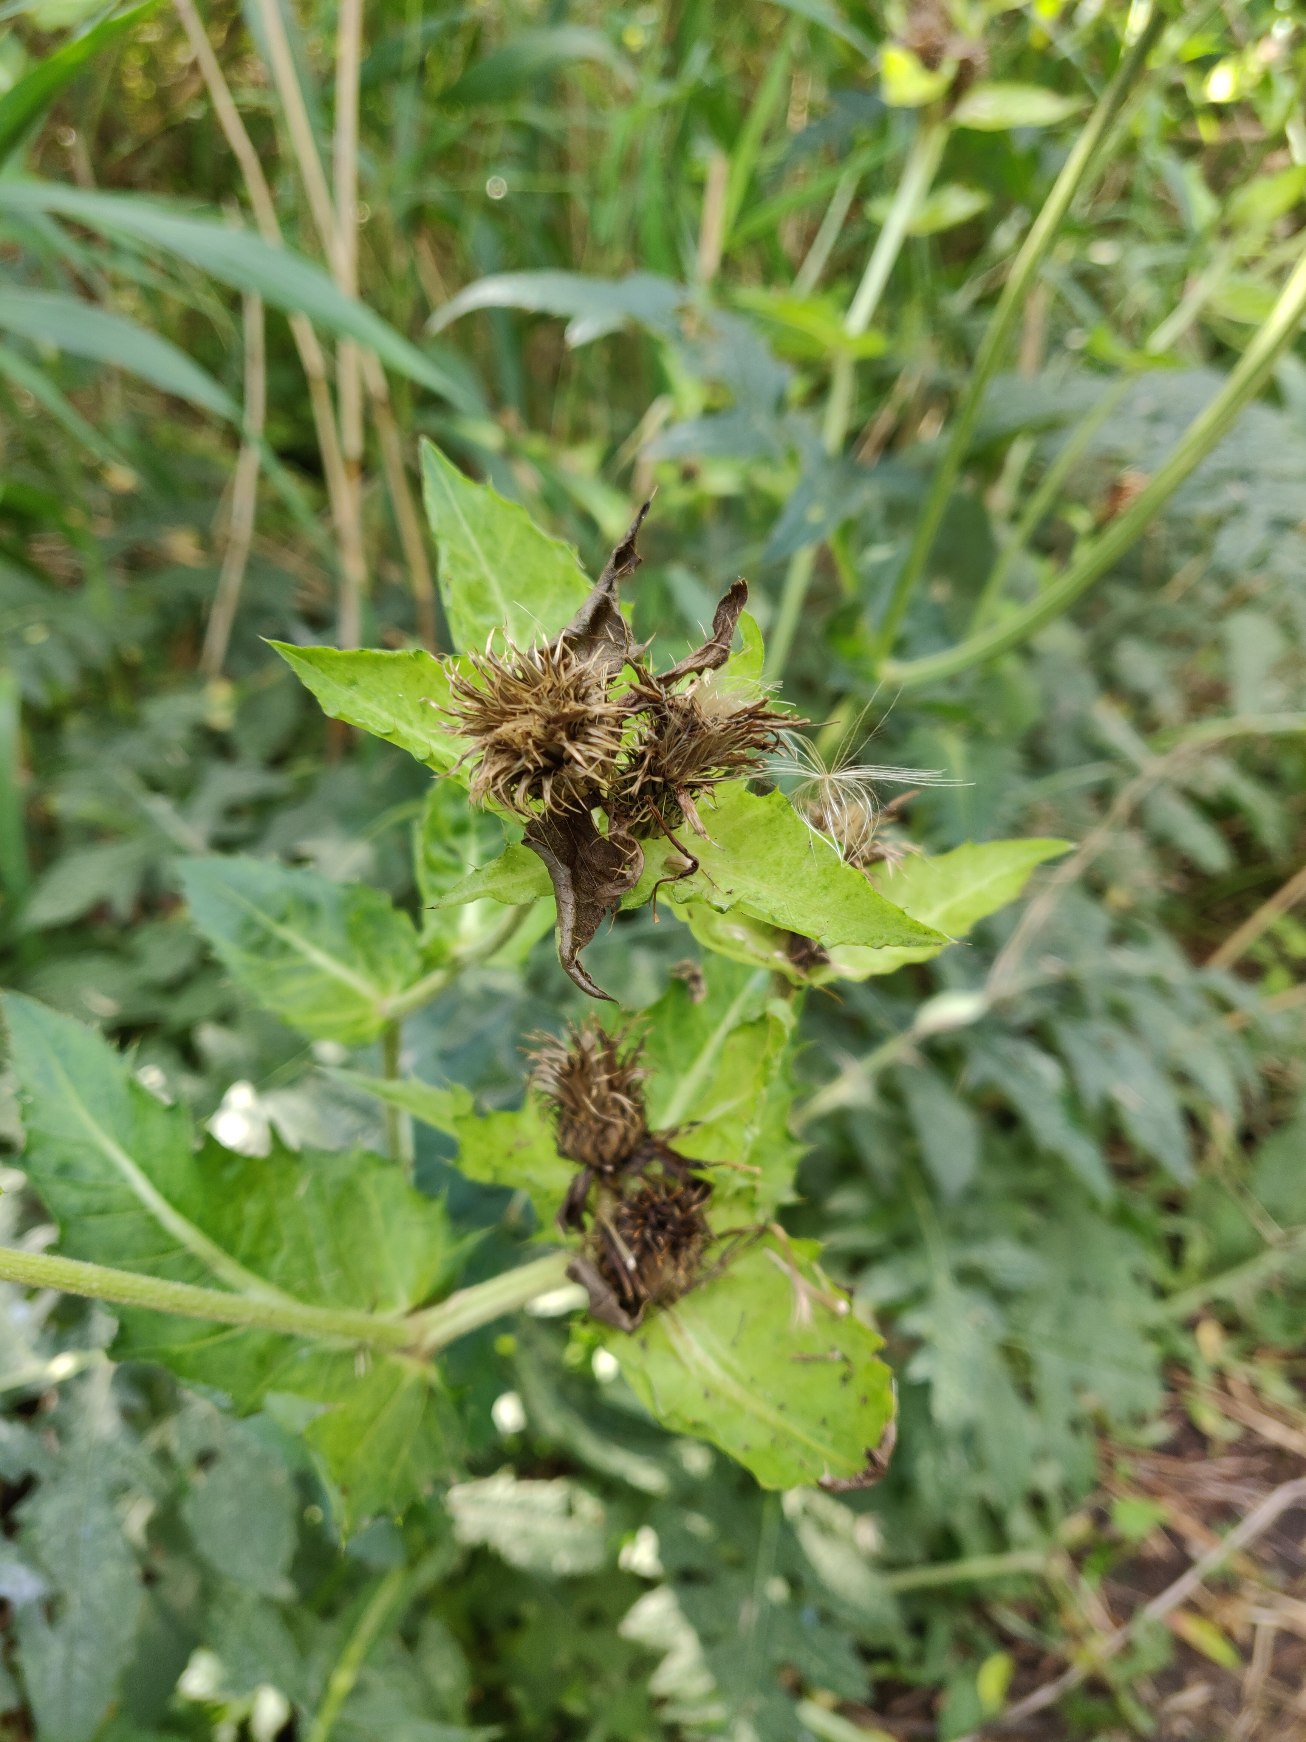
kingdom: Plantae
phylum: Tracheophyta
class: Magnoliopsida
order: Asterales
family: Asteraceae
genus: Cirsium
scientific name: Cirsium oleraceum
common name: Kål-tidsel
